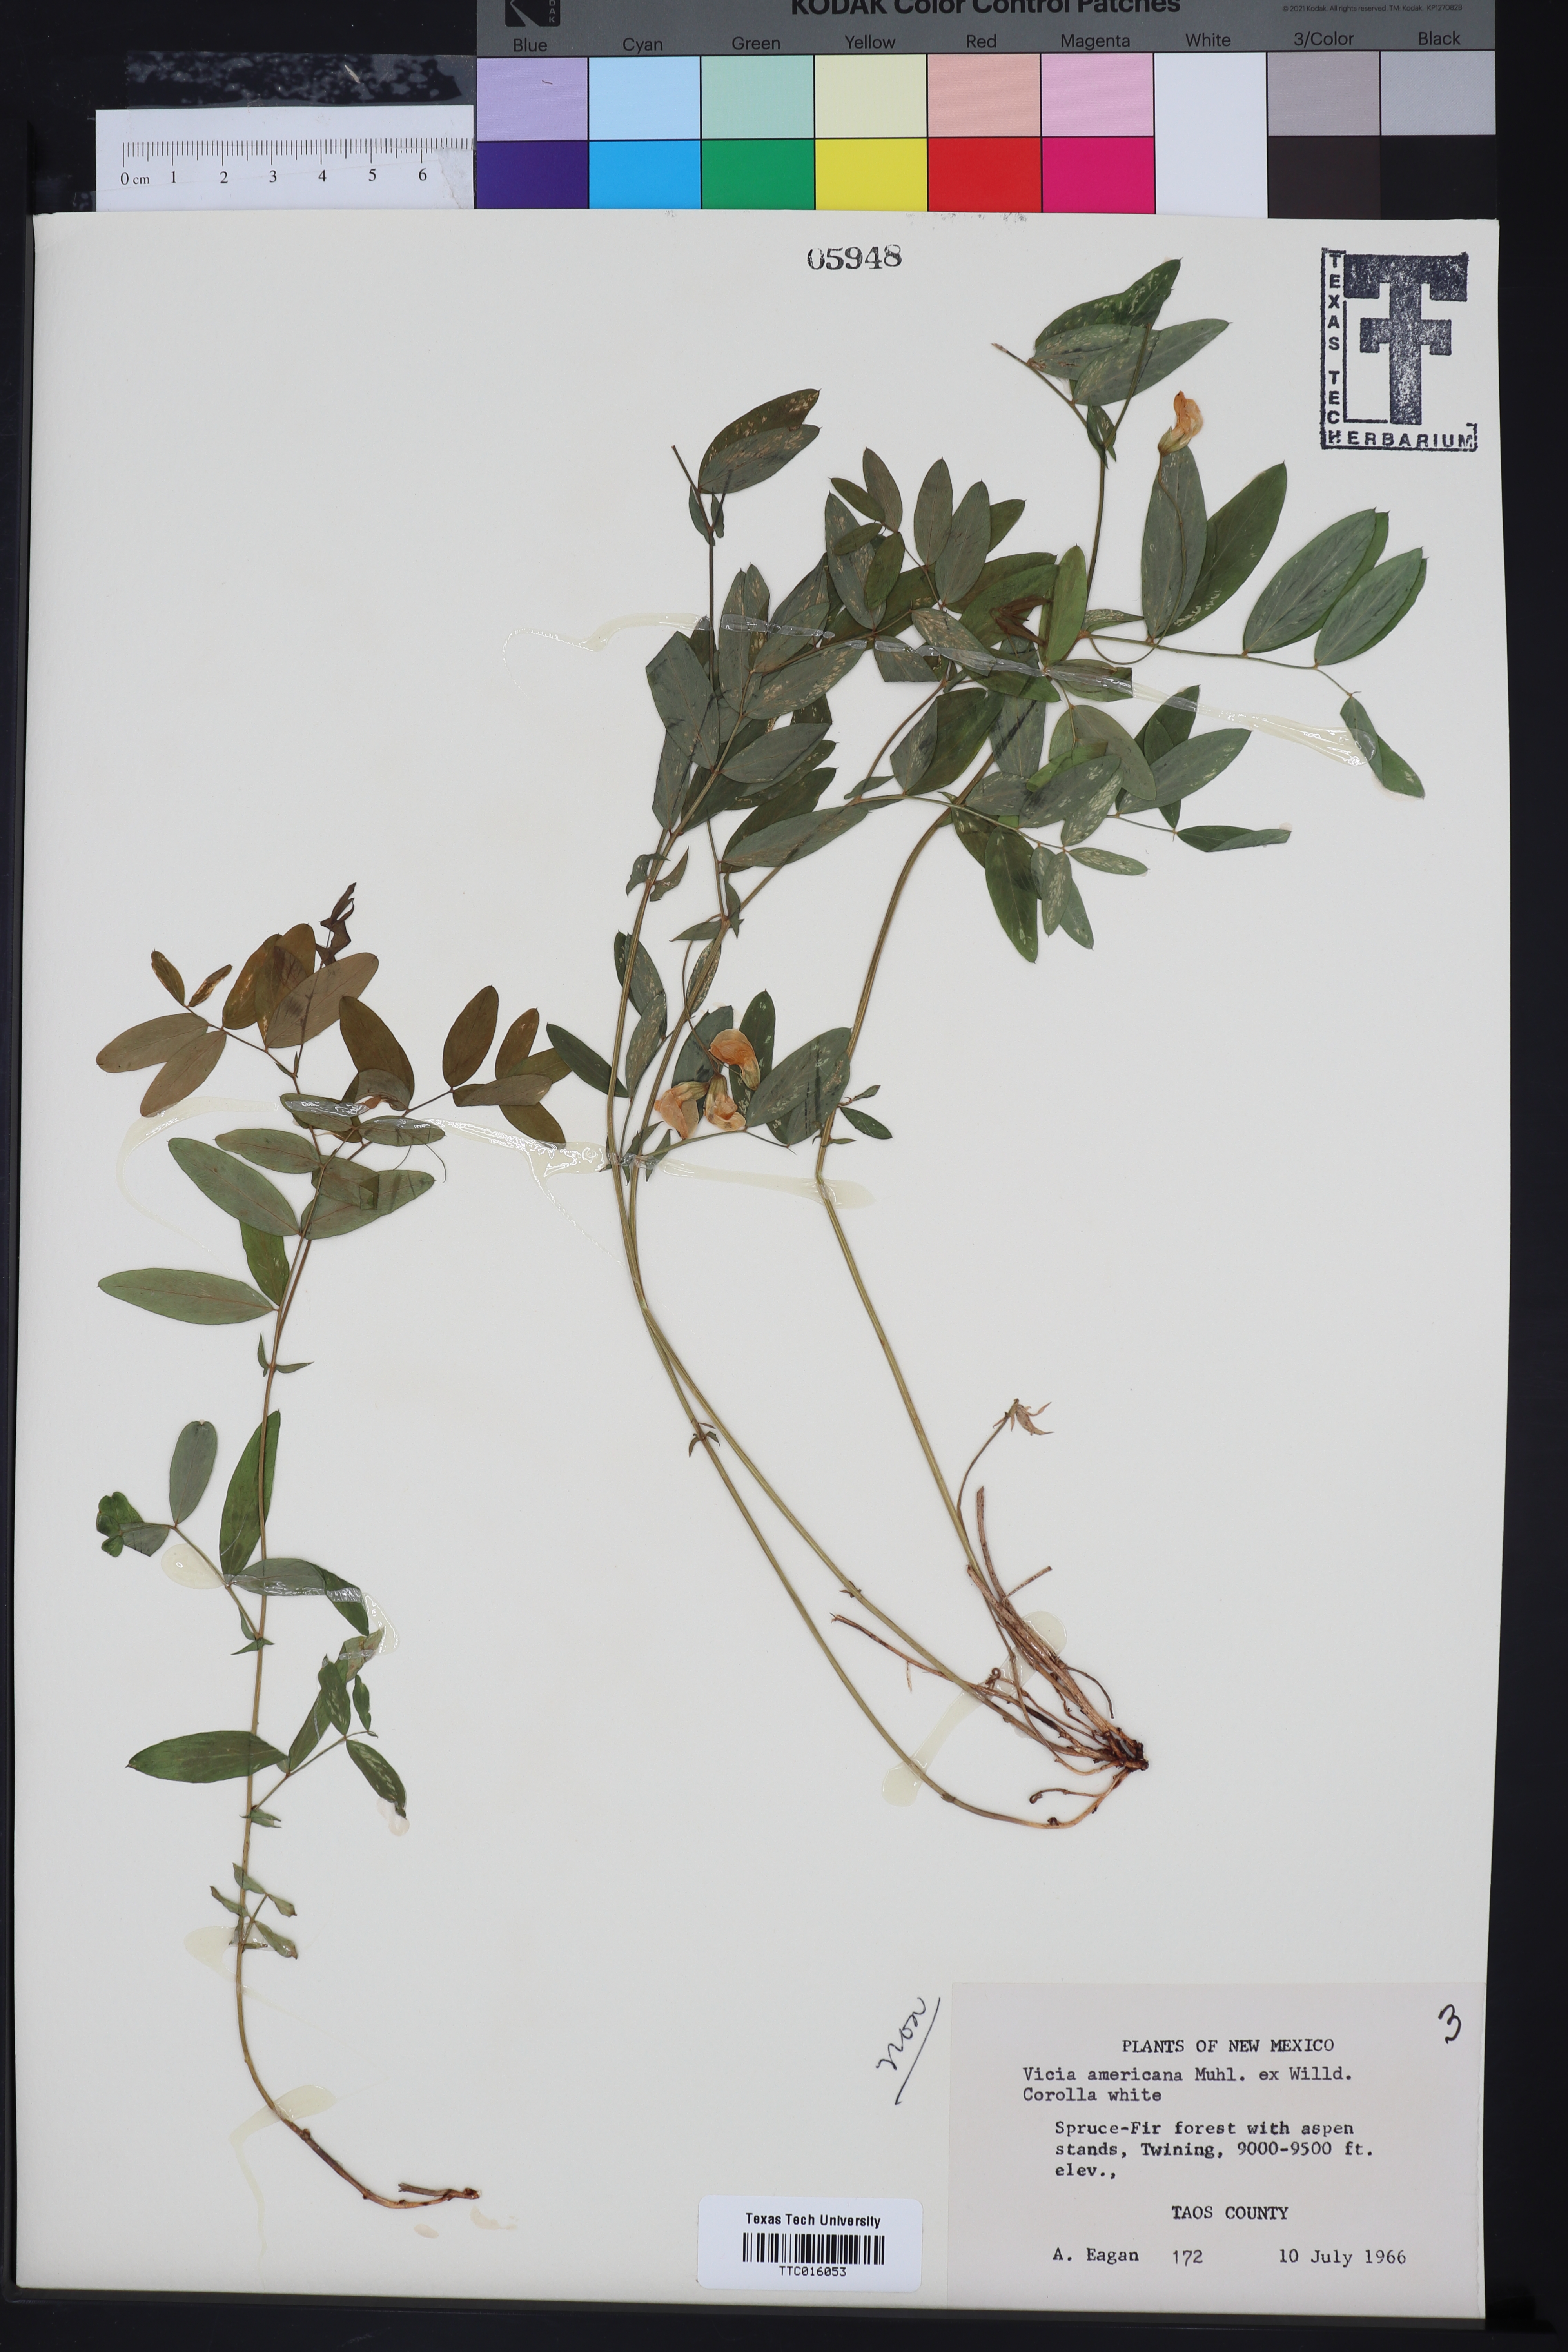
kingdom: Plantae
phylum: Tracheophyta
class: Magnoliopsida
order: Fabales
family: Fabaceae
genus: Vicia
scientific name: Vicia americana
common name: American vetch
